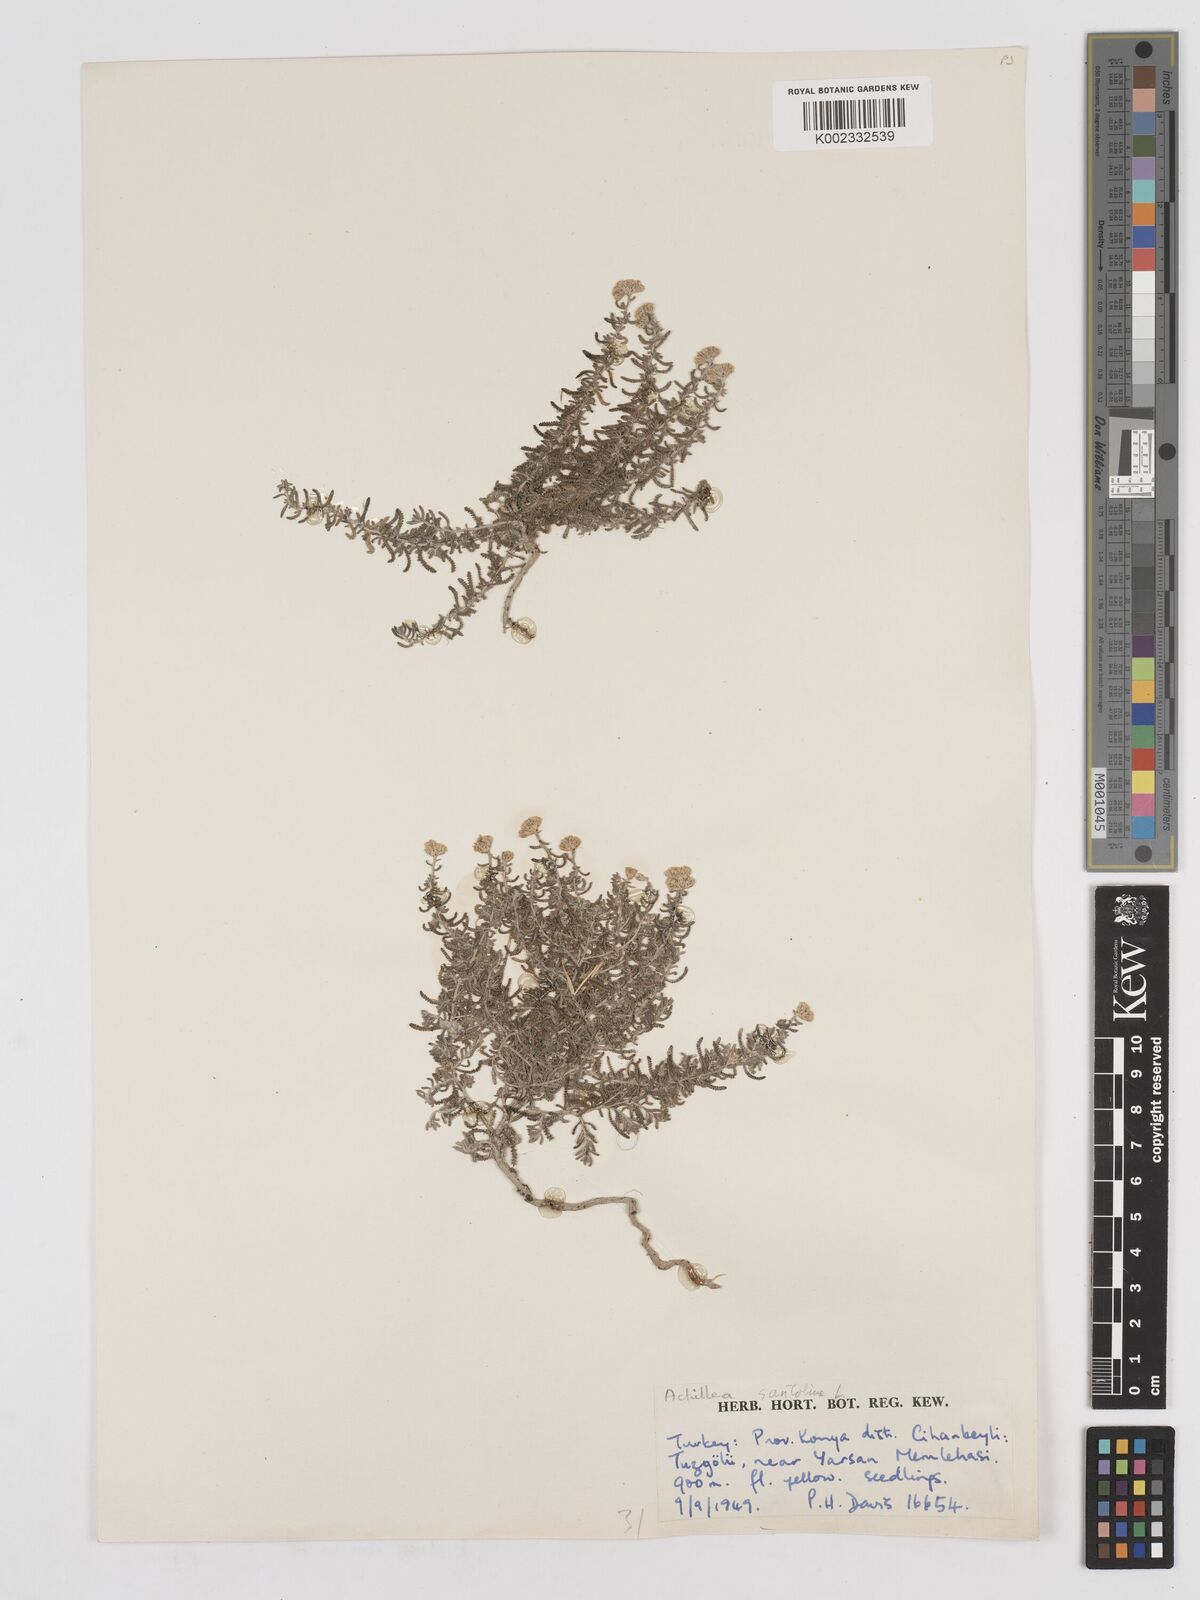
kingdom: Plantae
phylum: Tracheophyta
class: Magnoliopsida
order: Asterales
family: Asteraceae
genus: Achillea
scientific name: Achillea tenuifolia
